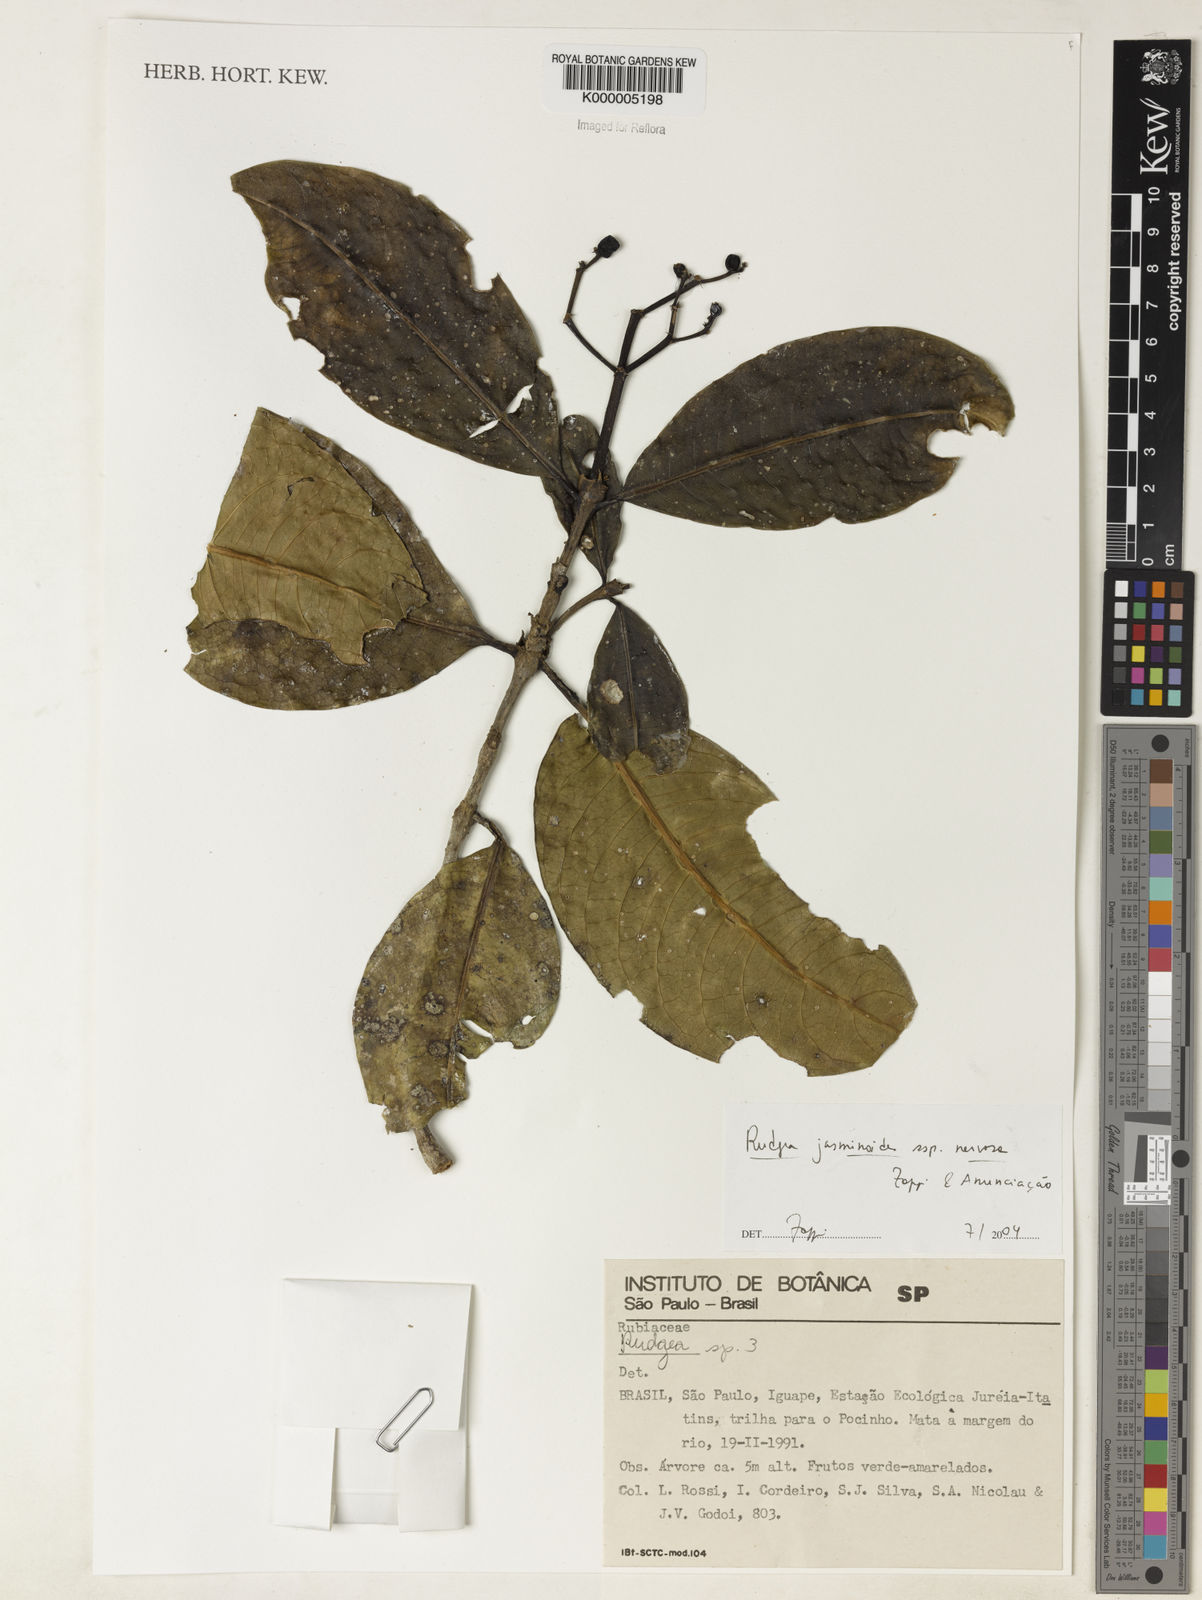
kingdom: Plantae
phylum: Tracheophyta
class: Magnoliopsida
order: Gentianales
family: Rubiaceae
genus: Rudgea
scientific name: Rudgea jasminoides
